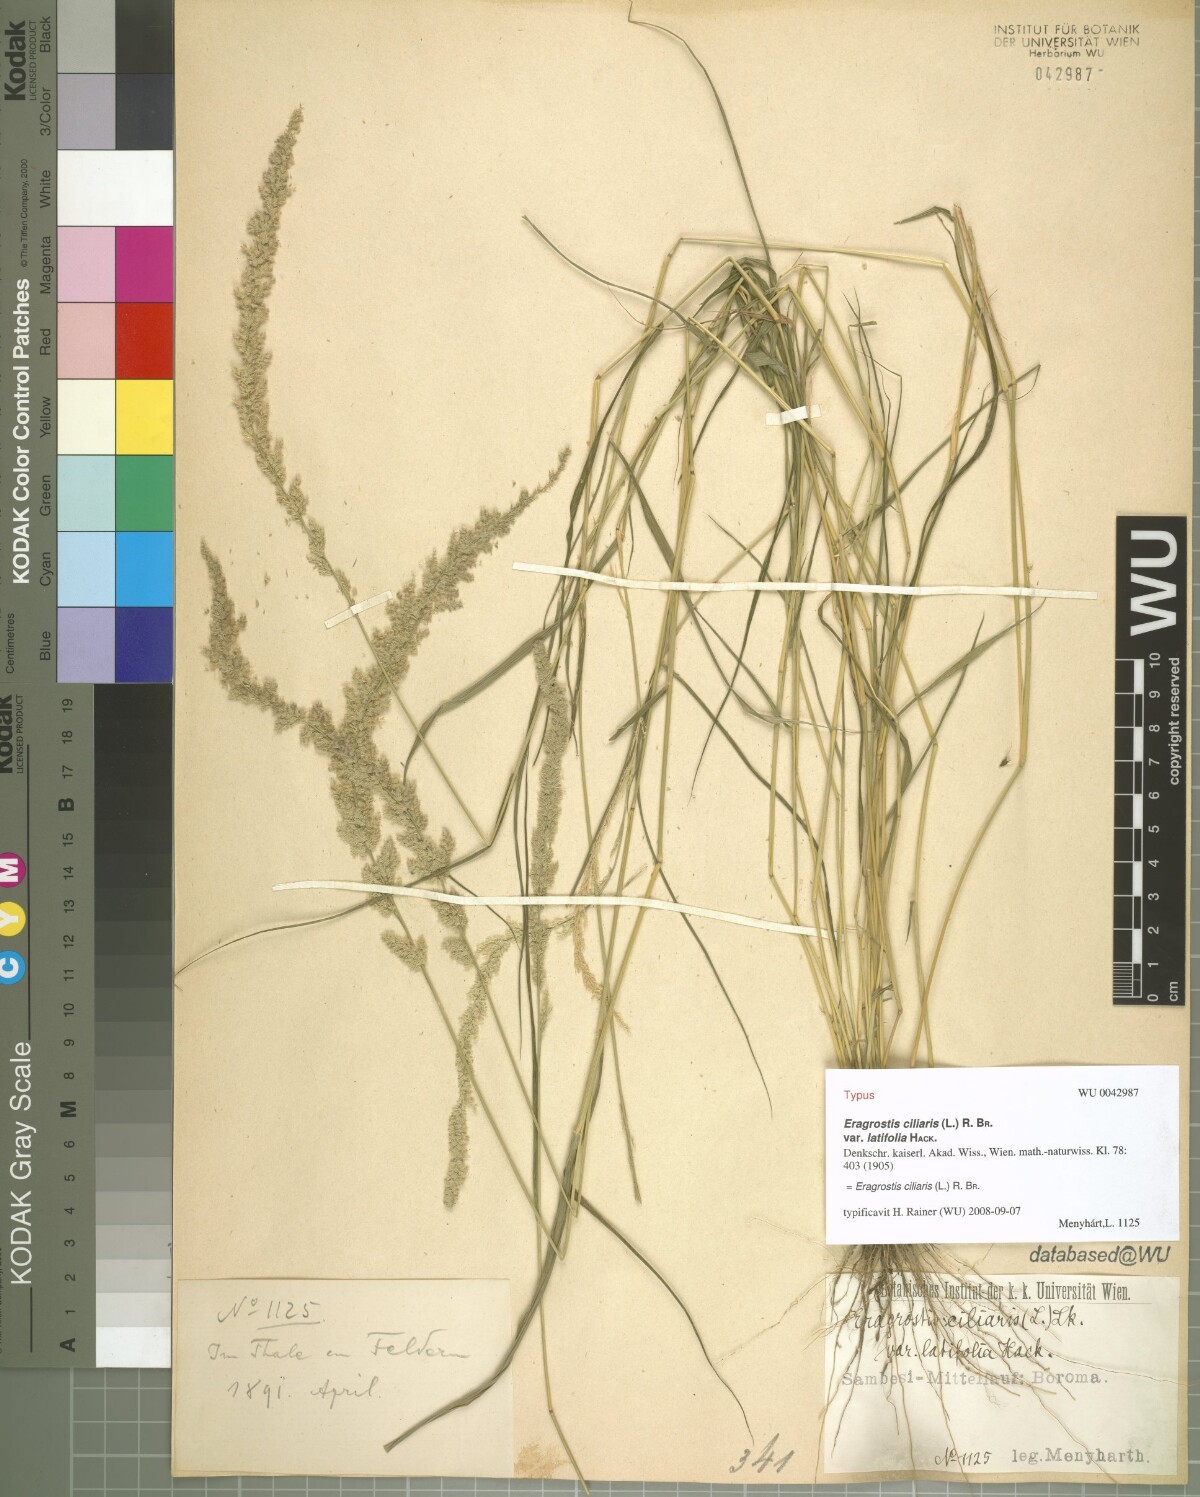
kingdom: Plantae
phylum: Tracheophyta
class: Liliopsida
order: Poales
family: Poaceae
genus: Eragrostis
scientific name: Eragrostis ciliaris
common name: Gophertail lovegrass
